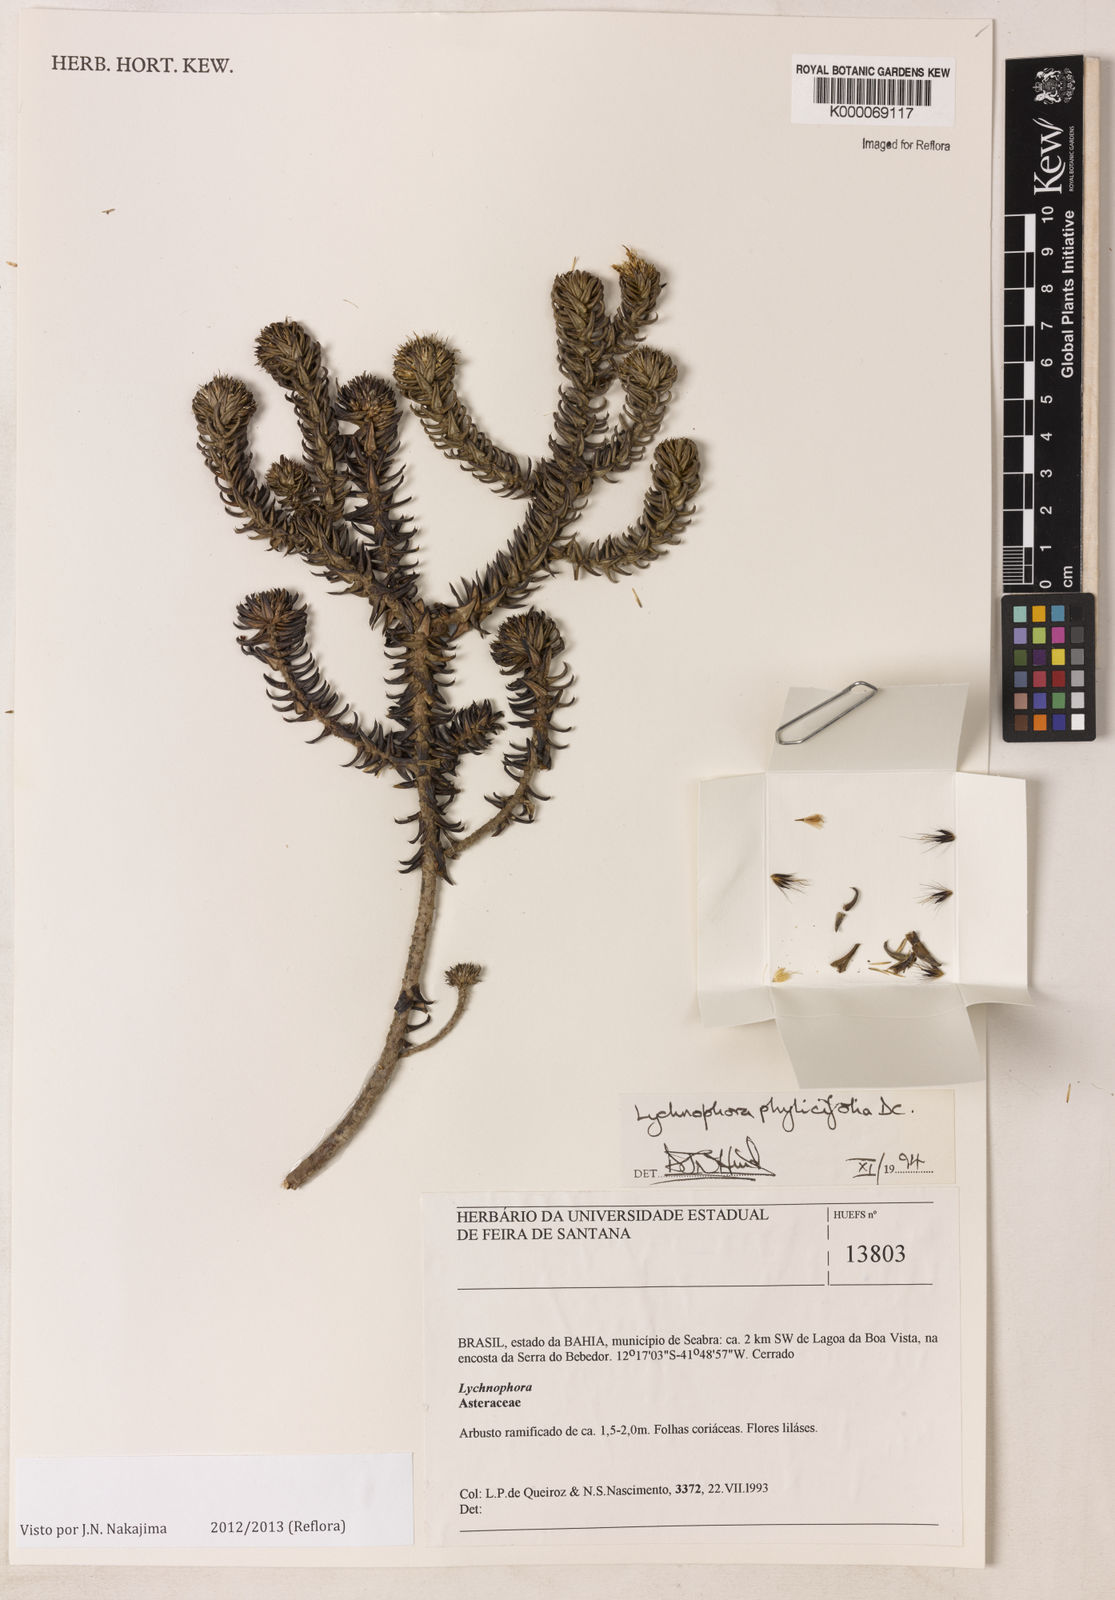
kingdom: Plantae
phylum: Tracheophyta
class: Magnoliopsida
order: Asterales
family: Asteraceae
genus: Lychnophora
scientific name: Lychnophora phylicifolia
